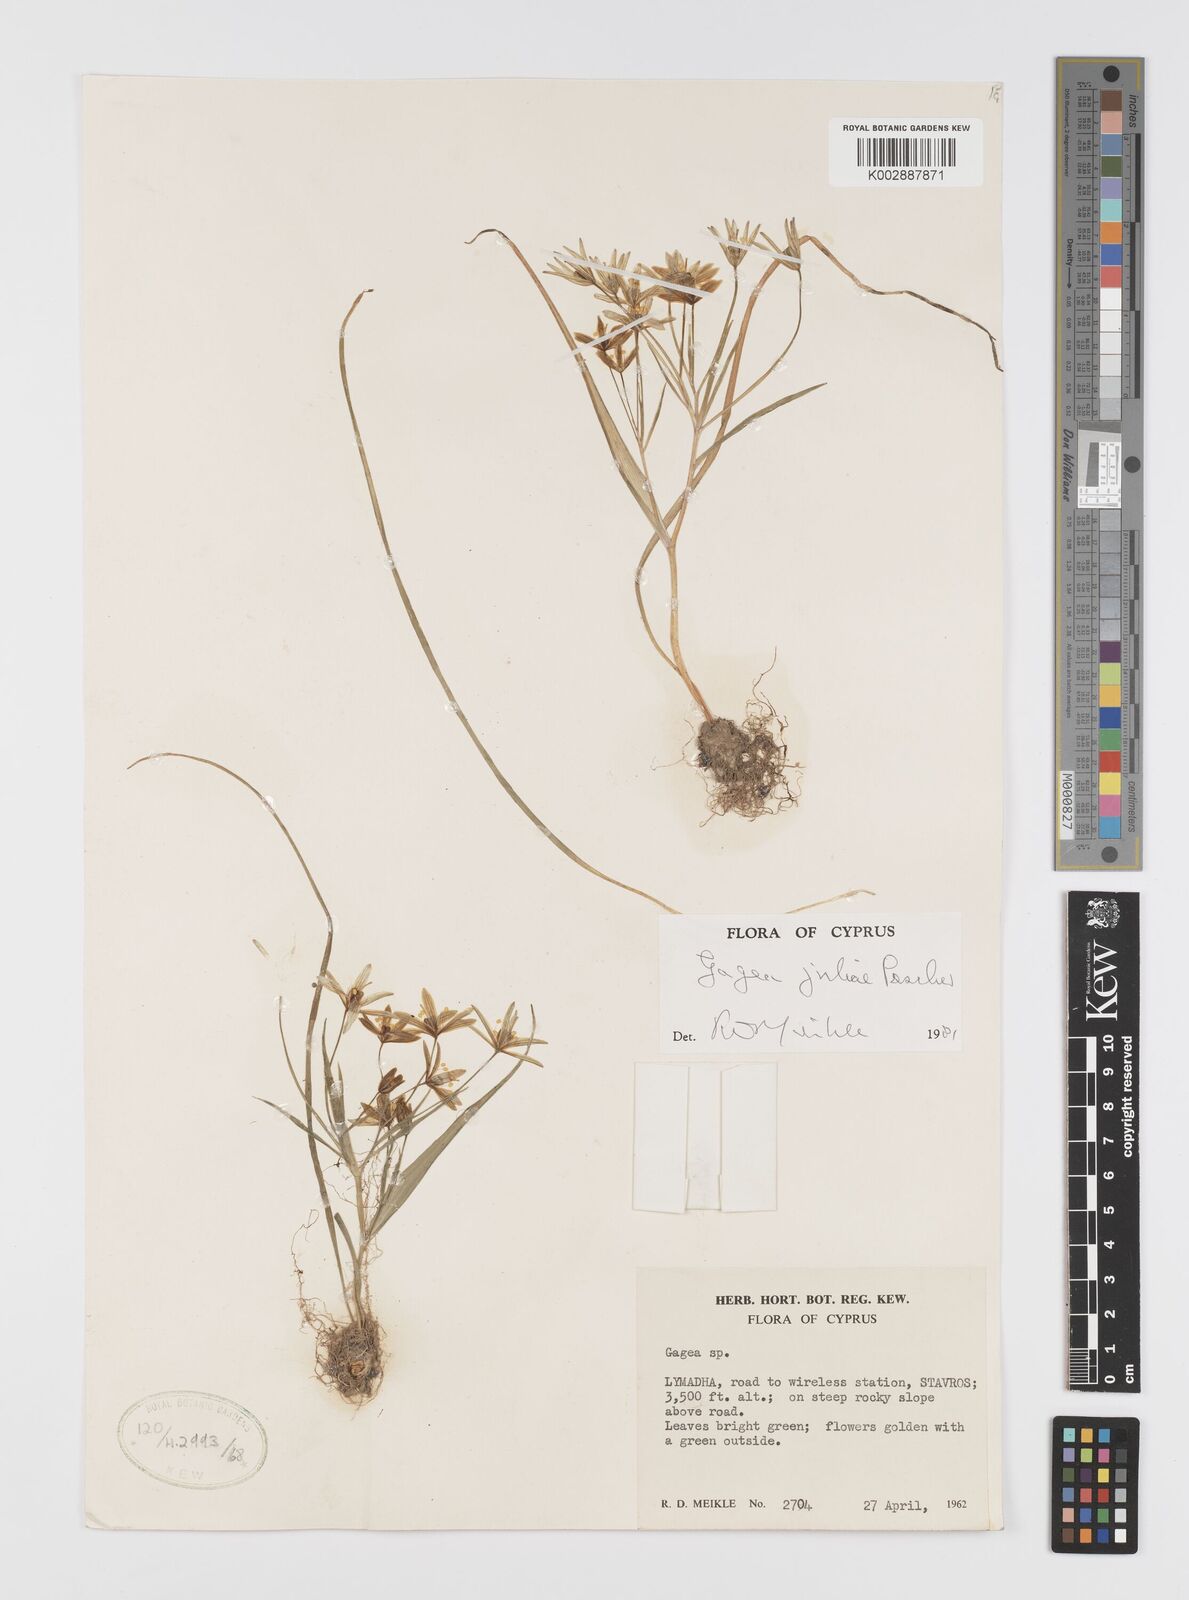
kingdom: Plantae
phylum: Tracheophyta
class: Liliopsida
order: Liliales
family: Liliaceae
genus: Gagea
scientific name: Gagea juliae
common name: Julia’s gagea
